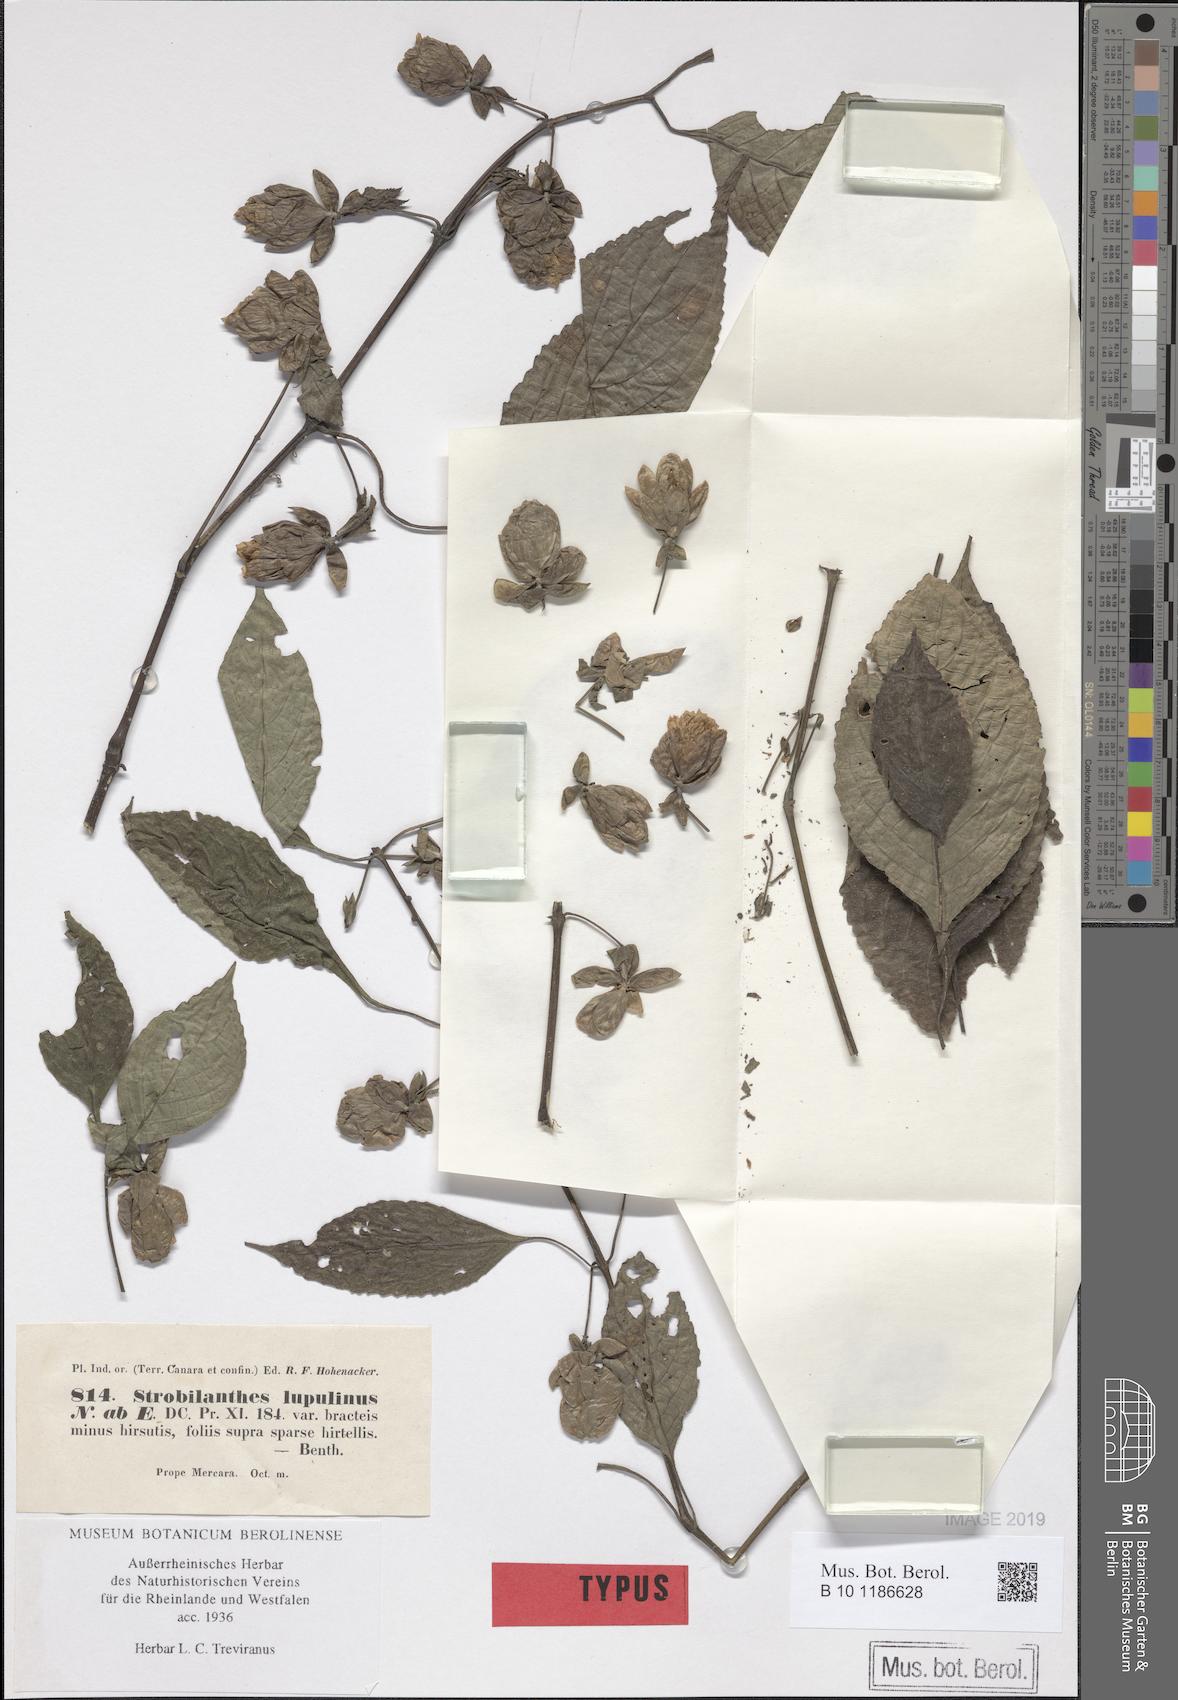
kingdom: Plantae
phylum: Tracheophyta
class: Magnoliopsida
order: Lamiales
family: Acanthaceae
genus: Strobilanthes
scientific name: Strobilanthes lupulina
